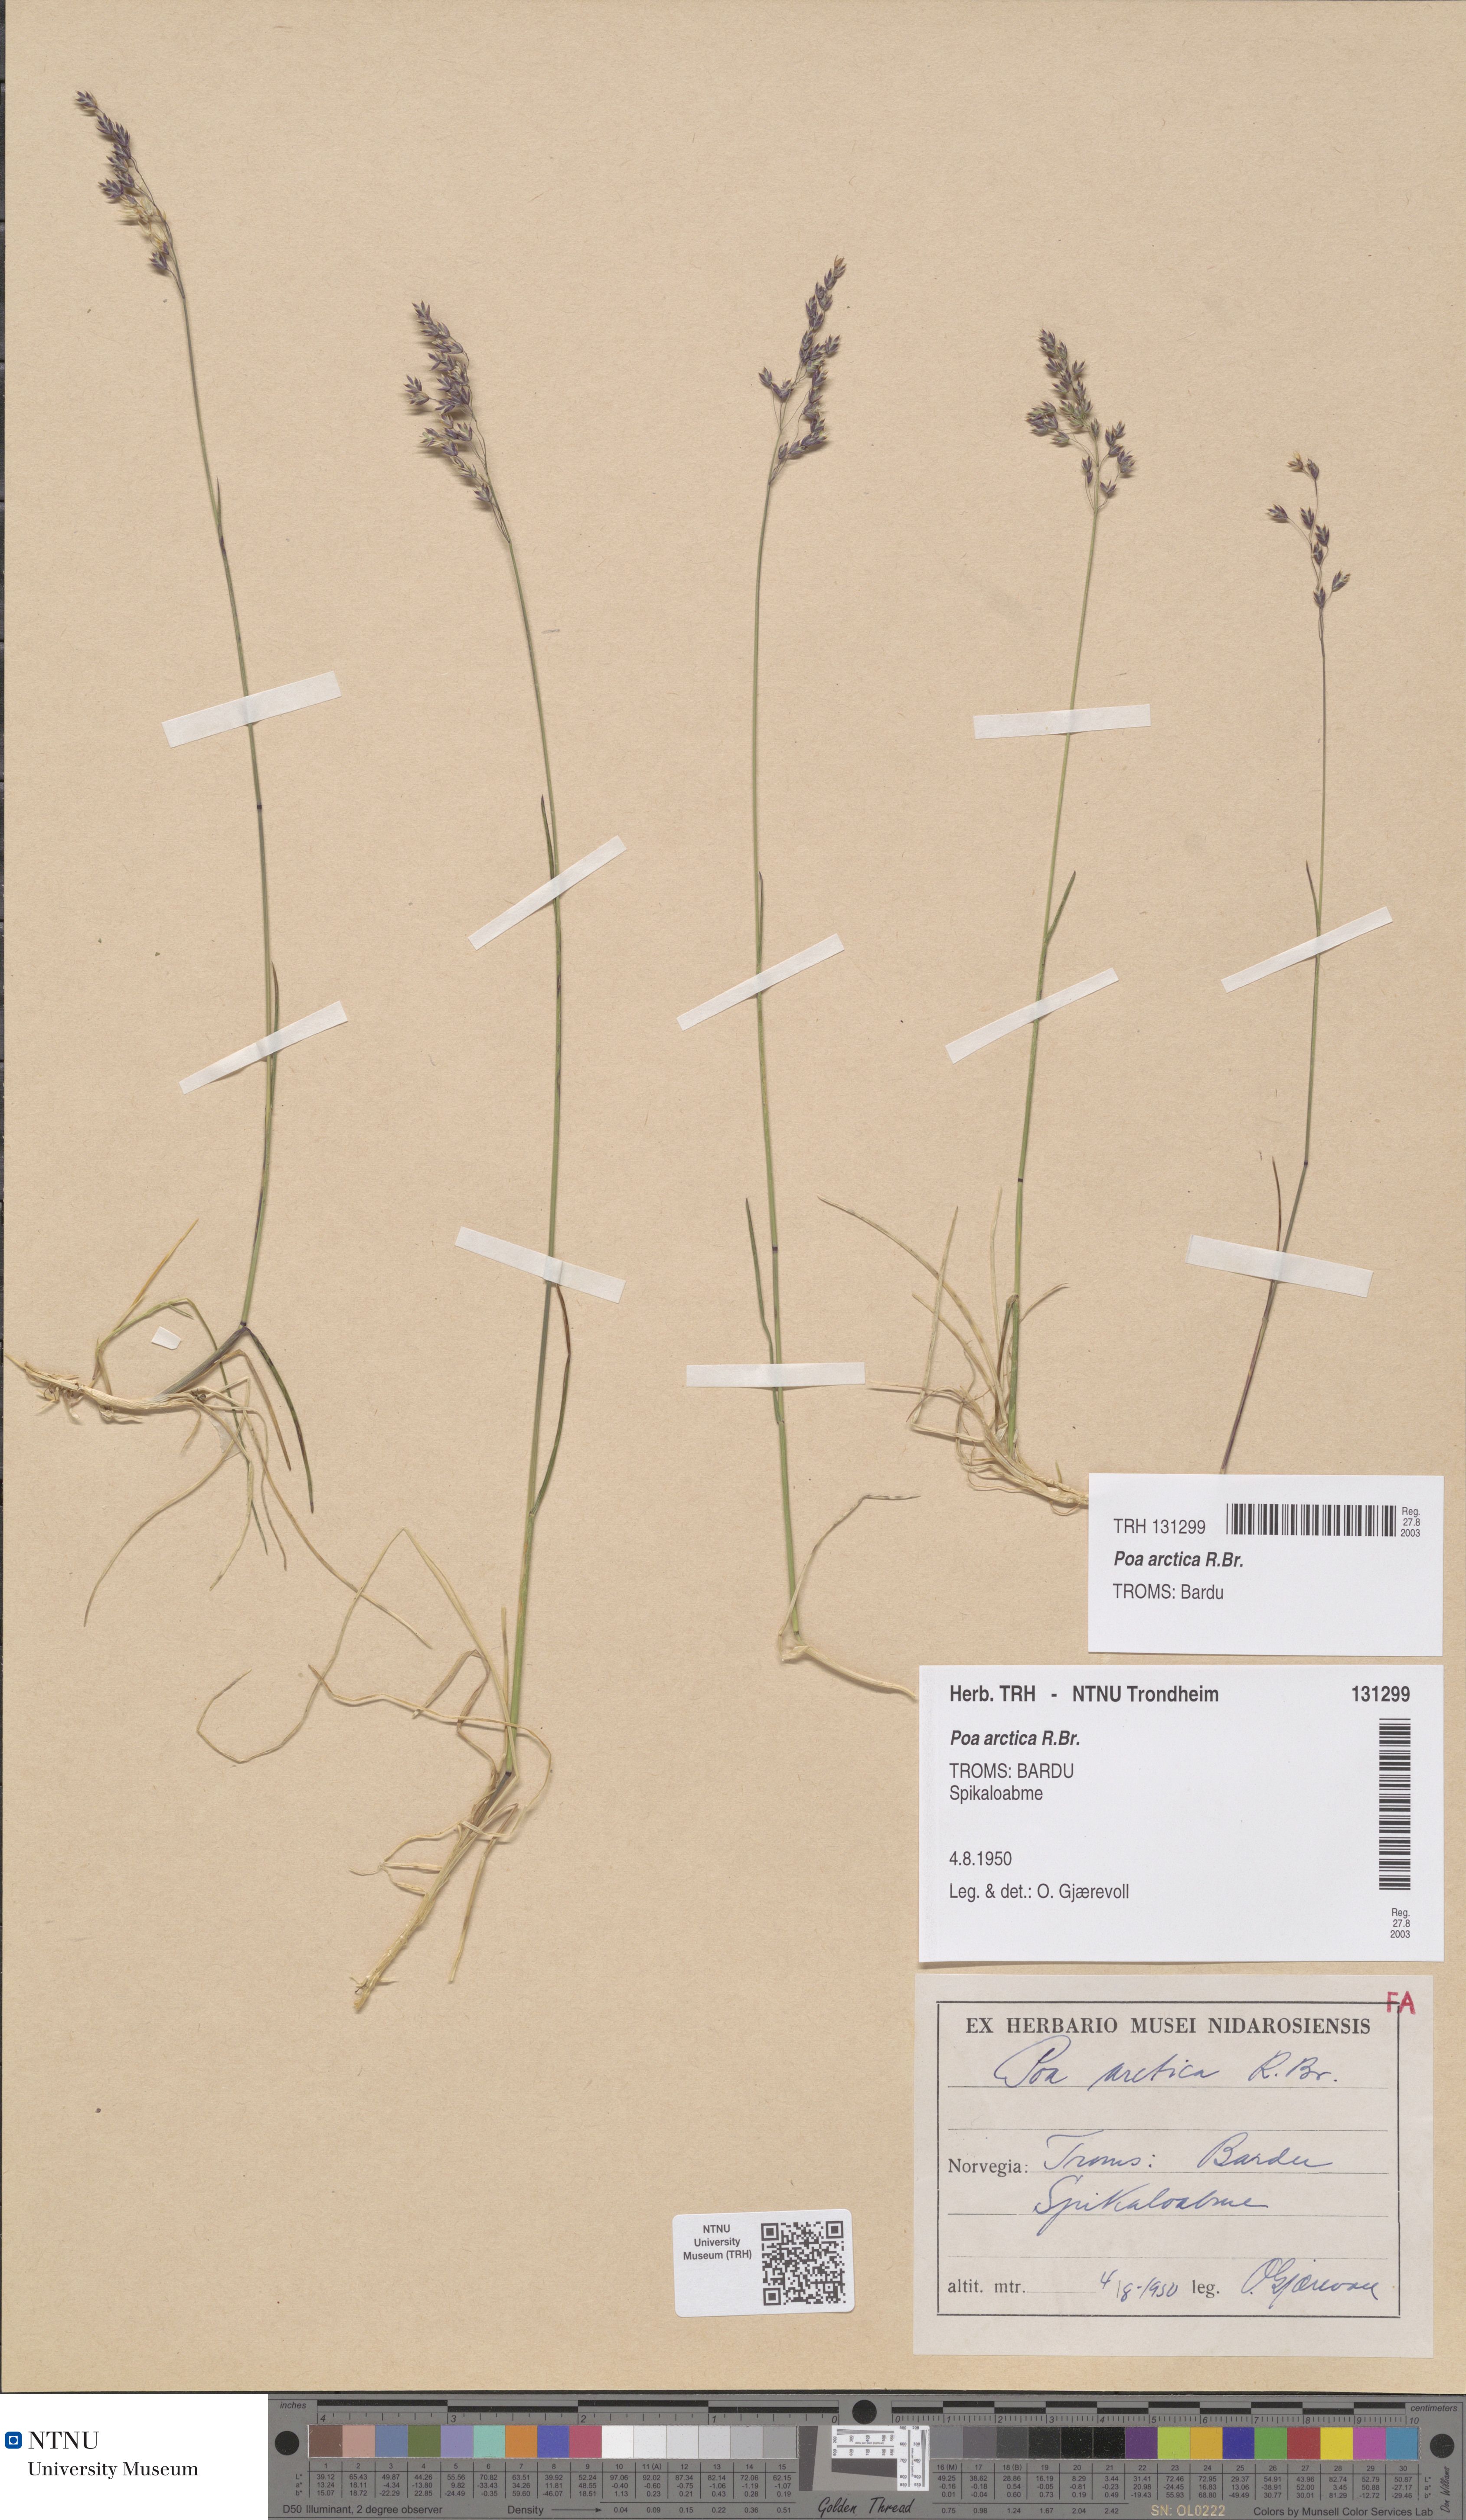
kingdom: Plantae
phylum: Tracheophyta
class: Liliopsida
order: Poales
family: Poaceae
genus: Poa
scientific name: Poa arctica
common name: Arctic bluegrass
